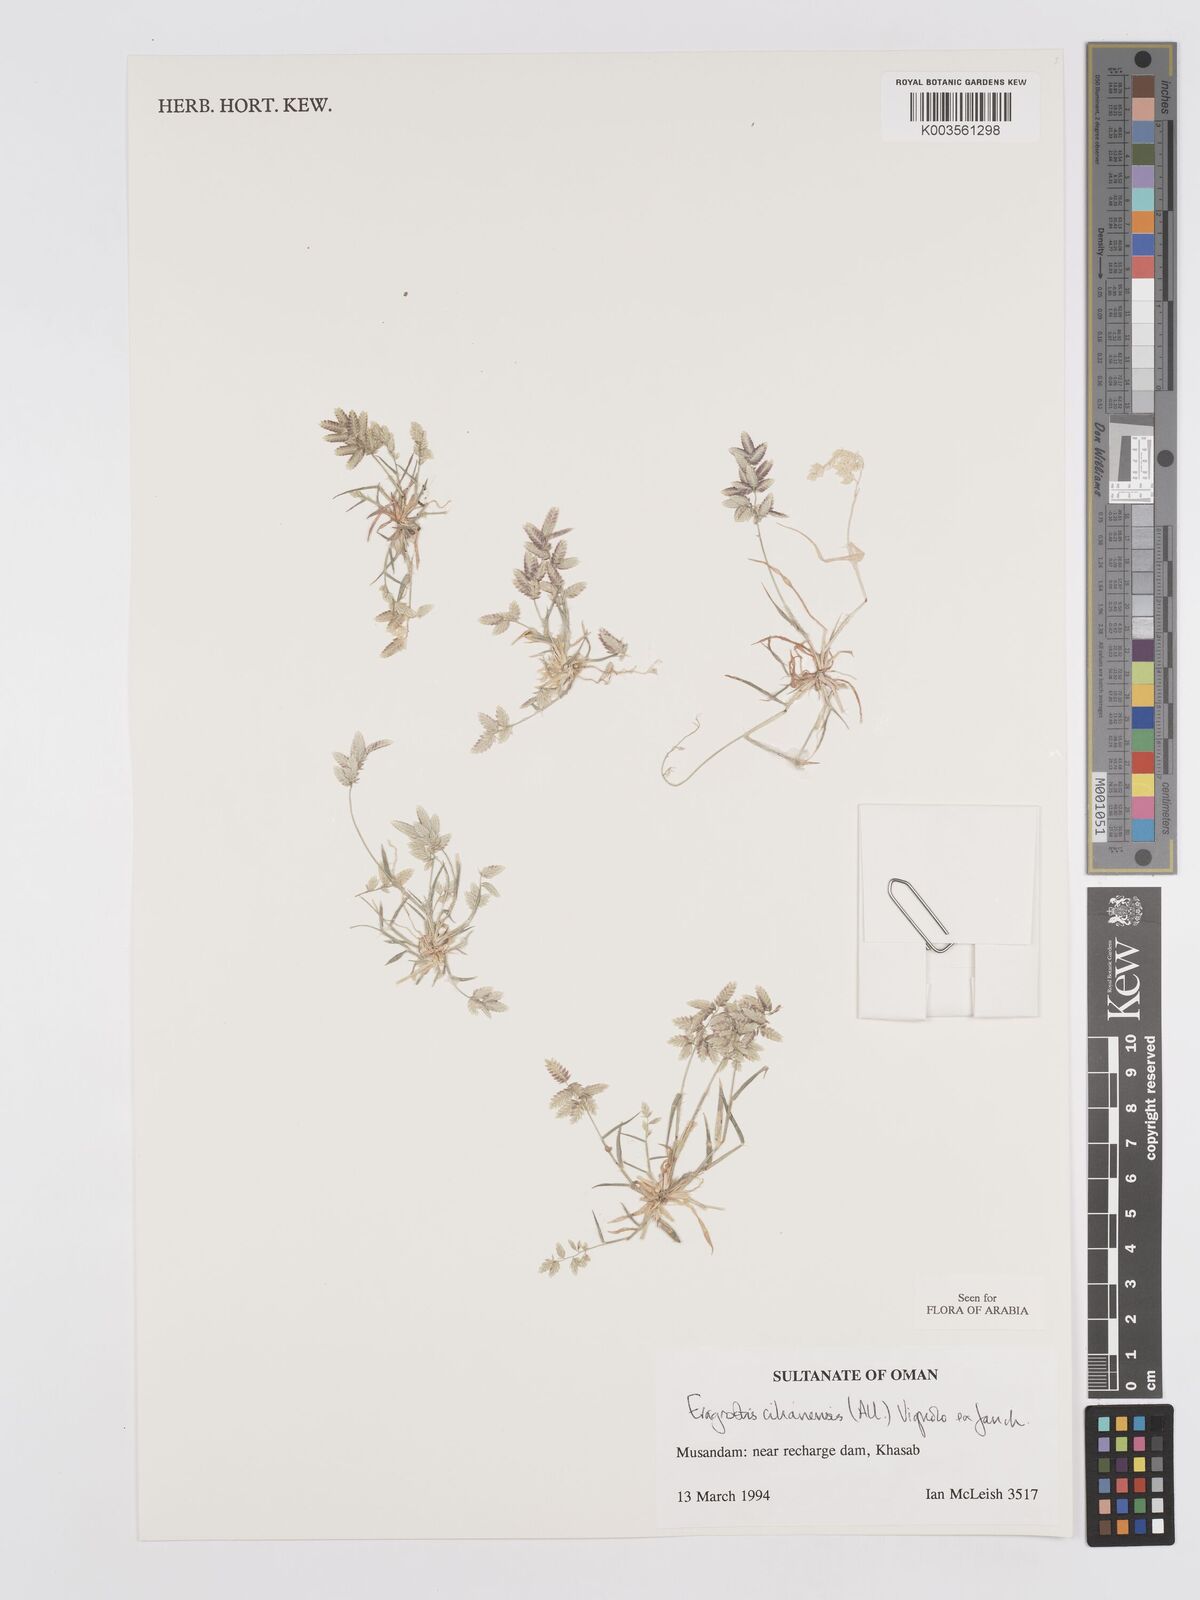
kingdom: Plantae
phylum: Tracheophyta
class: Liliopsida
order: Poales
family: Poaceae
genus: Eragrostis
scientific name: Eragrostis cilianensis
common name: Stinkgrass
